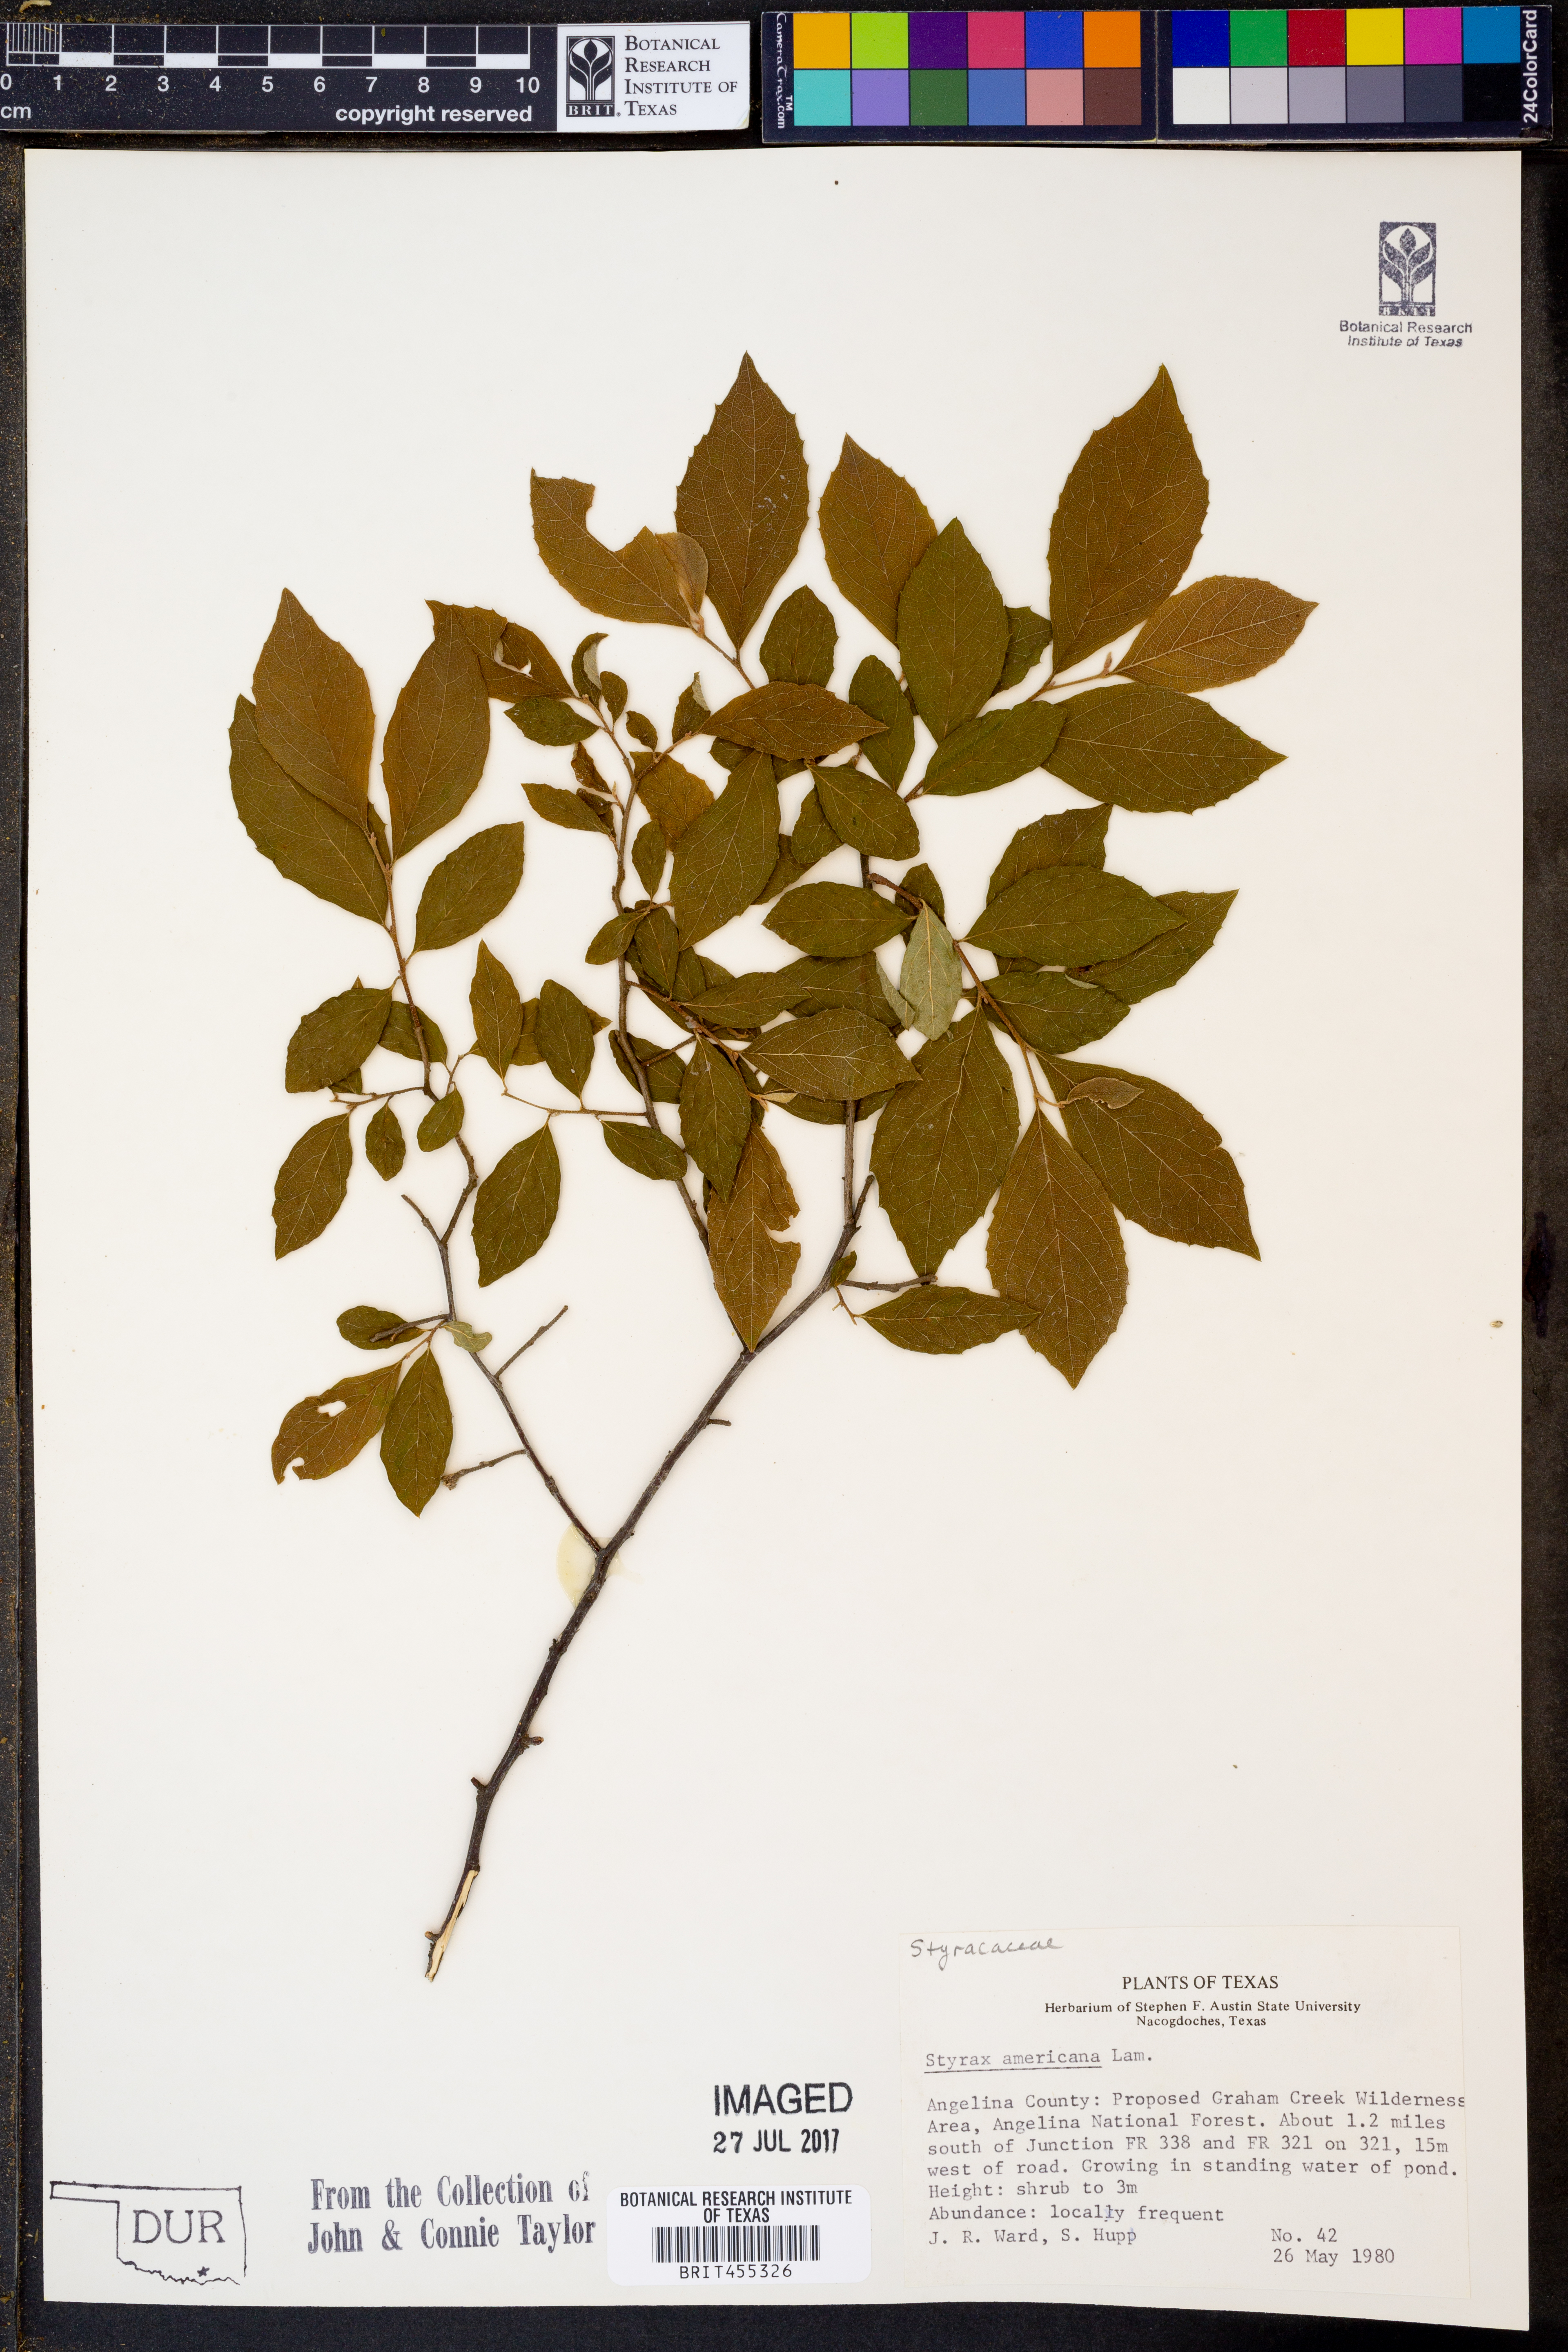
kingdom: Plantae
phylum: Tracheophyta
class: Magnoliopsida
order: Ericales
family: Styracaceae
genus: Styrax
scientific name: Styrax americanus
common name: American snowbell
